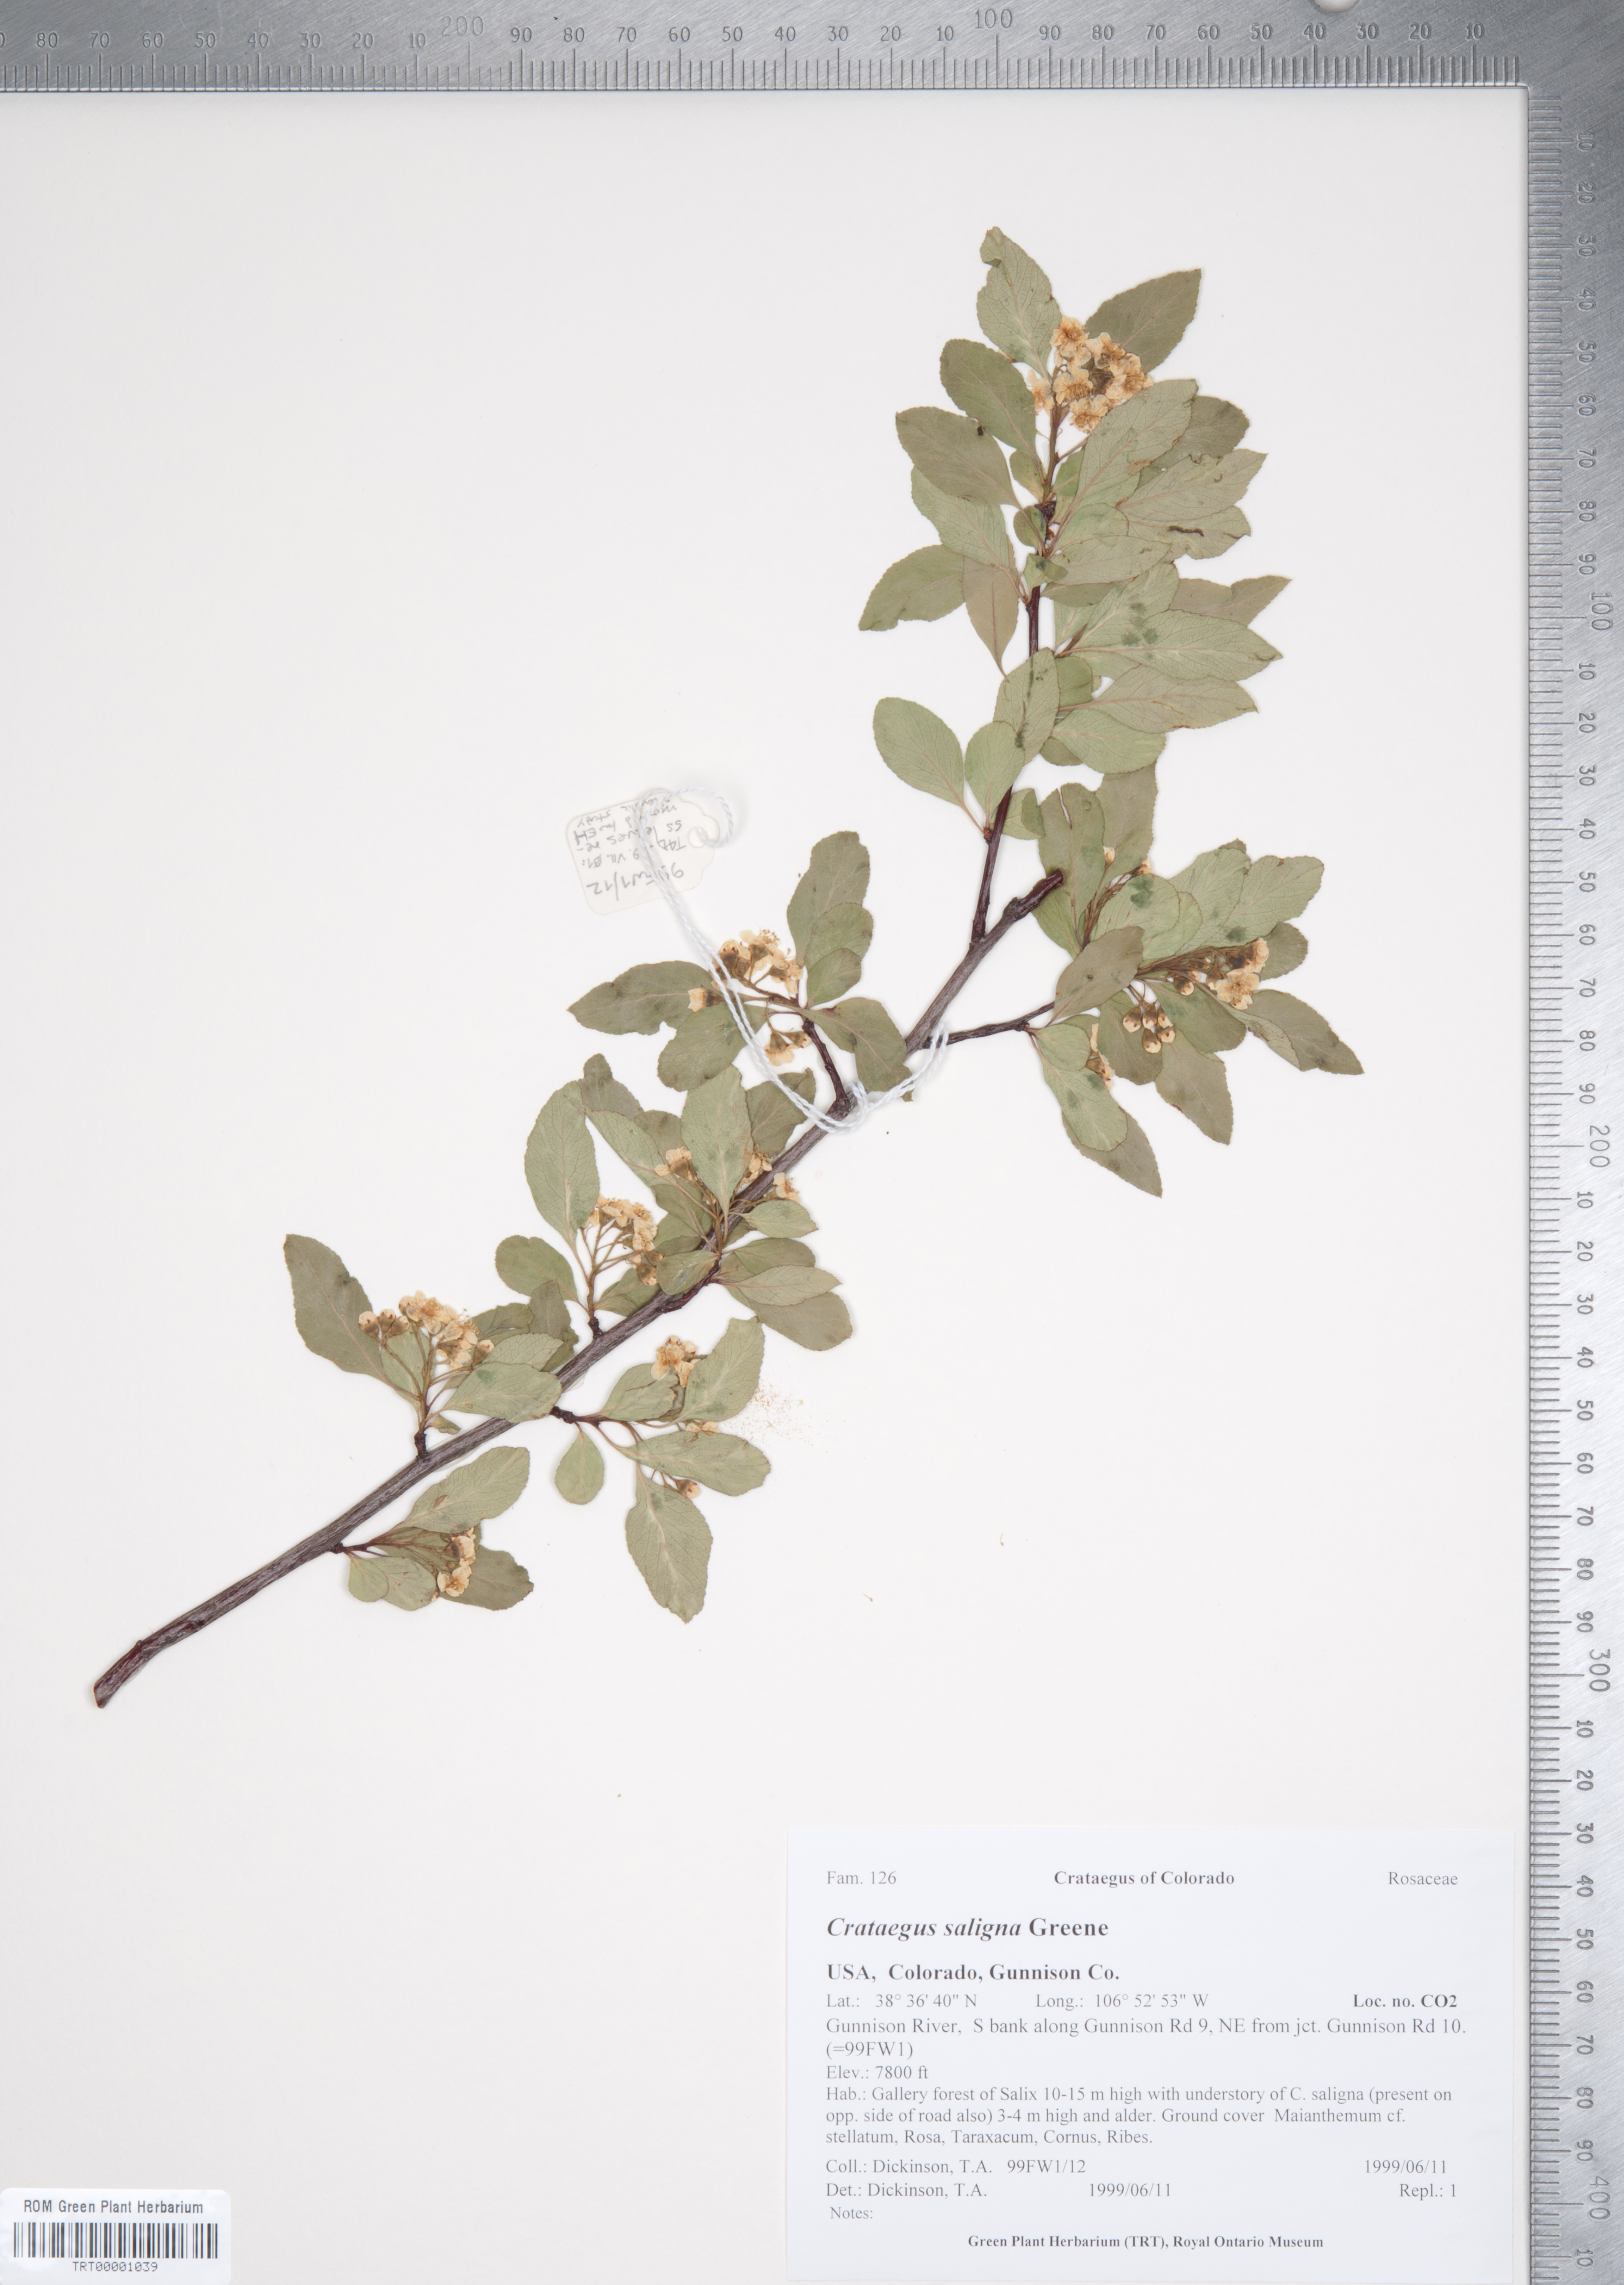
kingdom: Plantae
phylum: Tracheophyta
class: Magnoliopsida
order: Rosales
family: Rosaceae
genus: Crataegus
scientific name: Crataegus saligna
